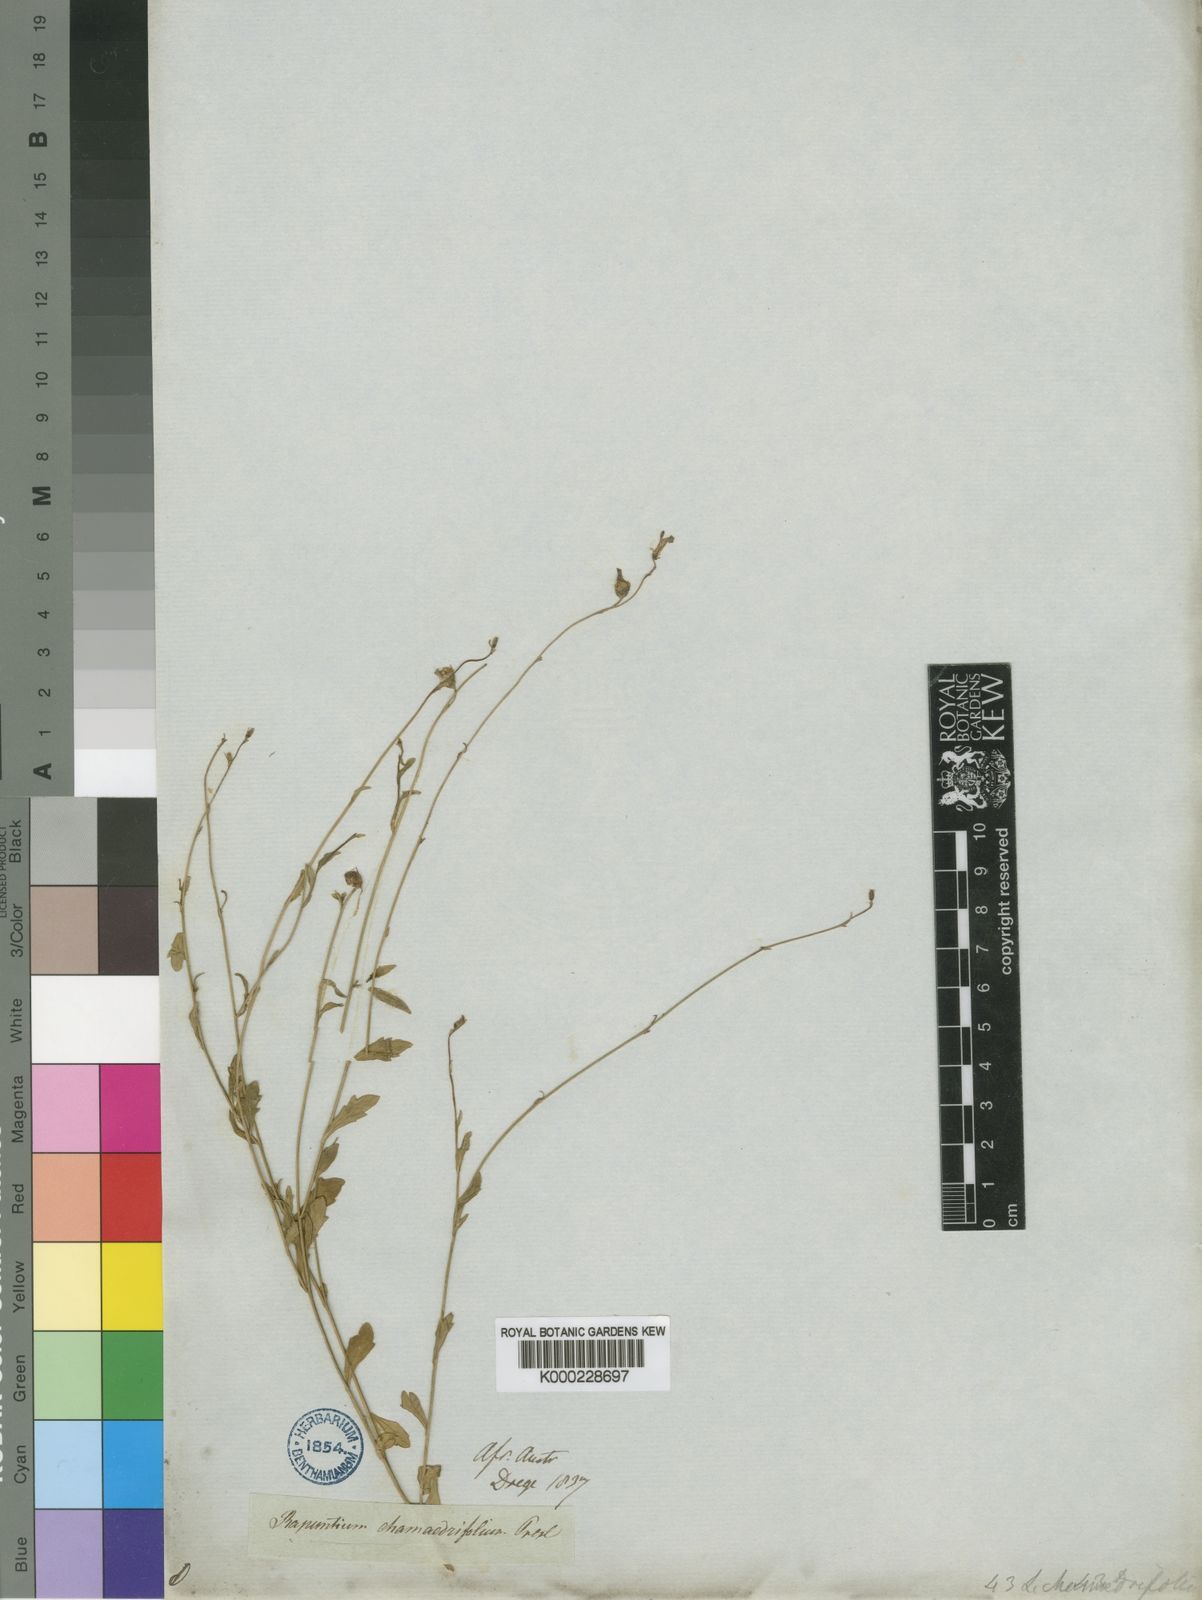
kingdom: Plantae
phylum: Tracheophyta
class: Magnoliopsida
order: Asterales
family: Campanulaceae
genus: Lobelia
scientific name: Lobelia chamaedryfolia
